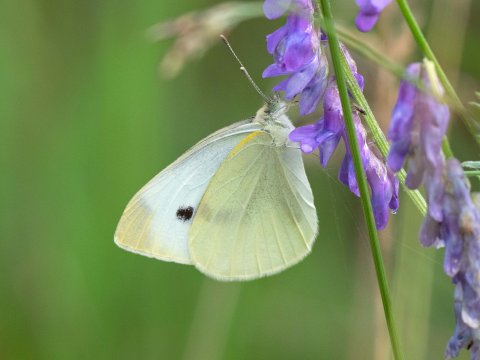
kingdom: Animalia
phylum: Arthropoda
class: Insecta
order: Lepidoptera
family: Pieridae
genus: Pieris
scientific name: Pieris rapae
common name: Cabbage White
